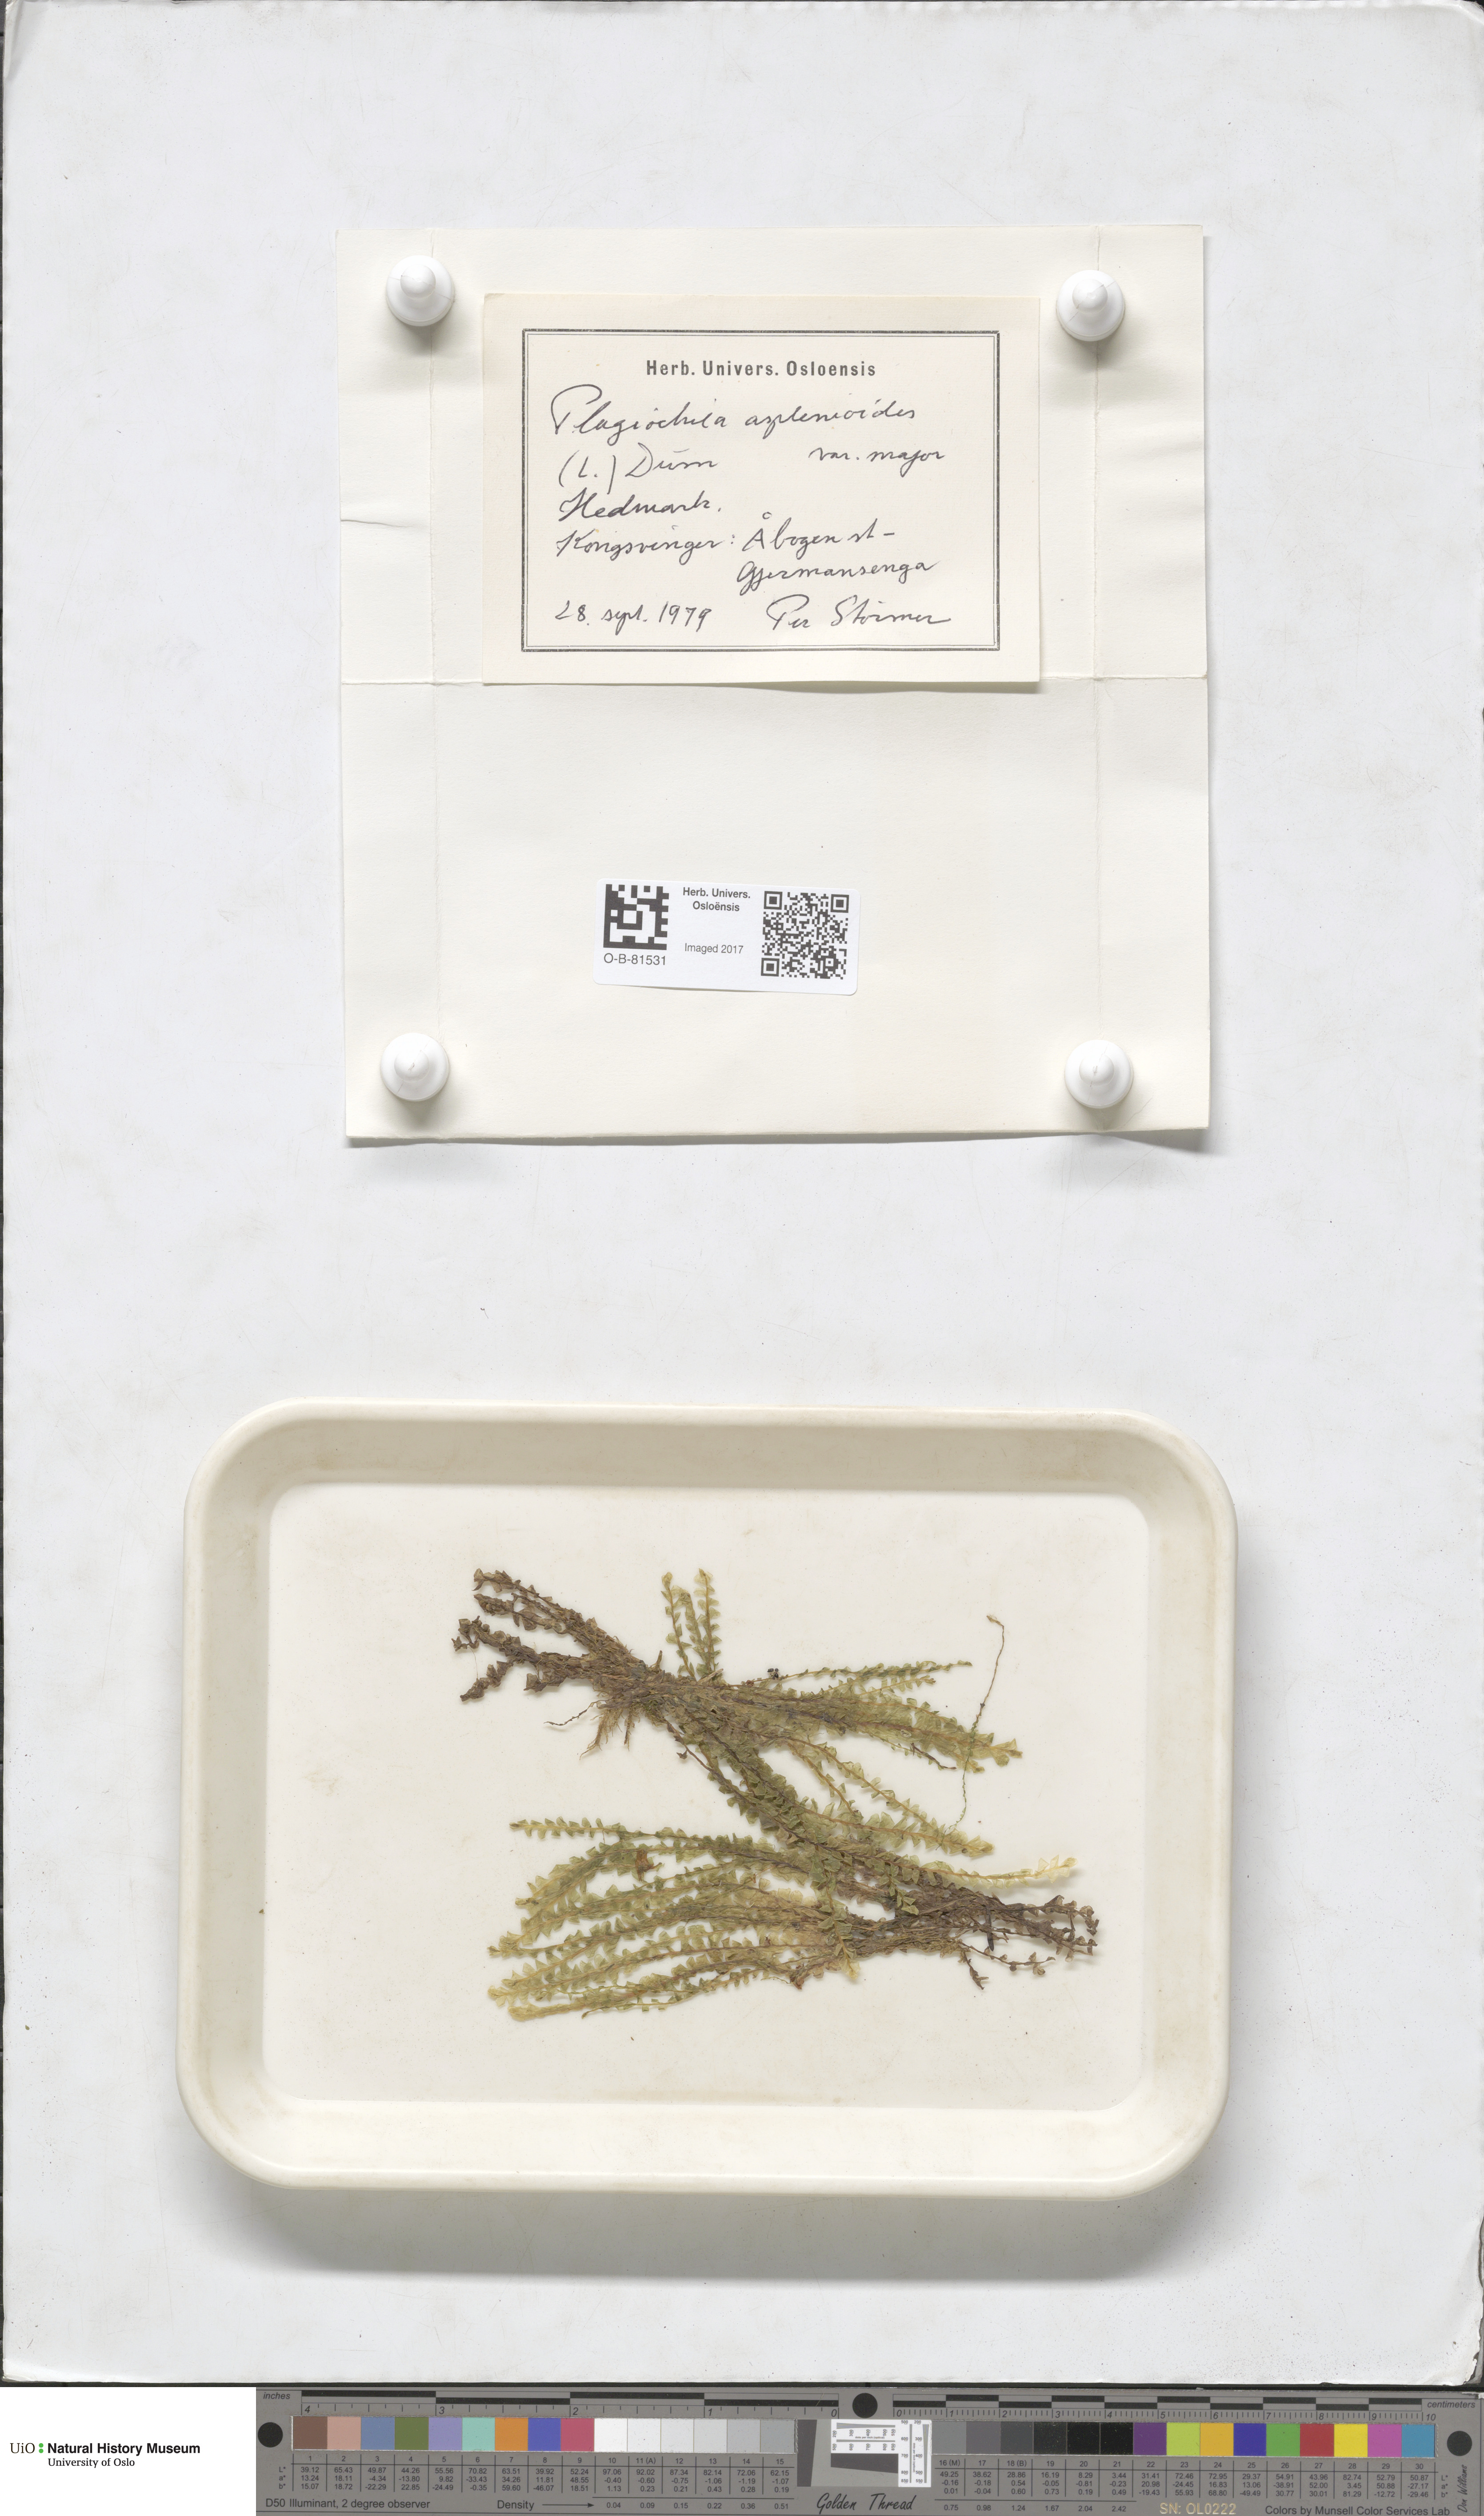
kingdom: Plantae
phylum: Marchantiophyta
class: Jungermanniopsida
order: Jungermanniales
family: Plagiochilaceae
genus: Plagiochila
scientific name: Plagiochila asplenioides
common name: Greater featherwort
